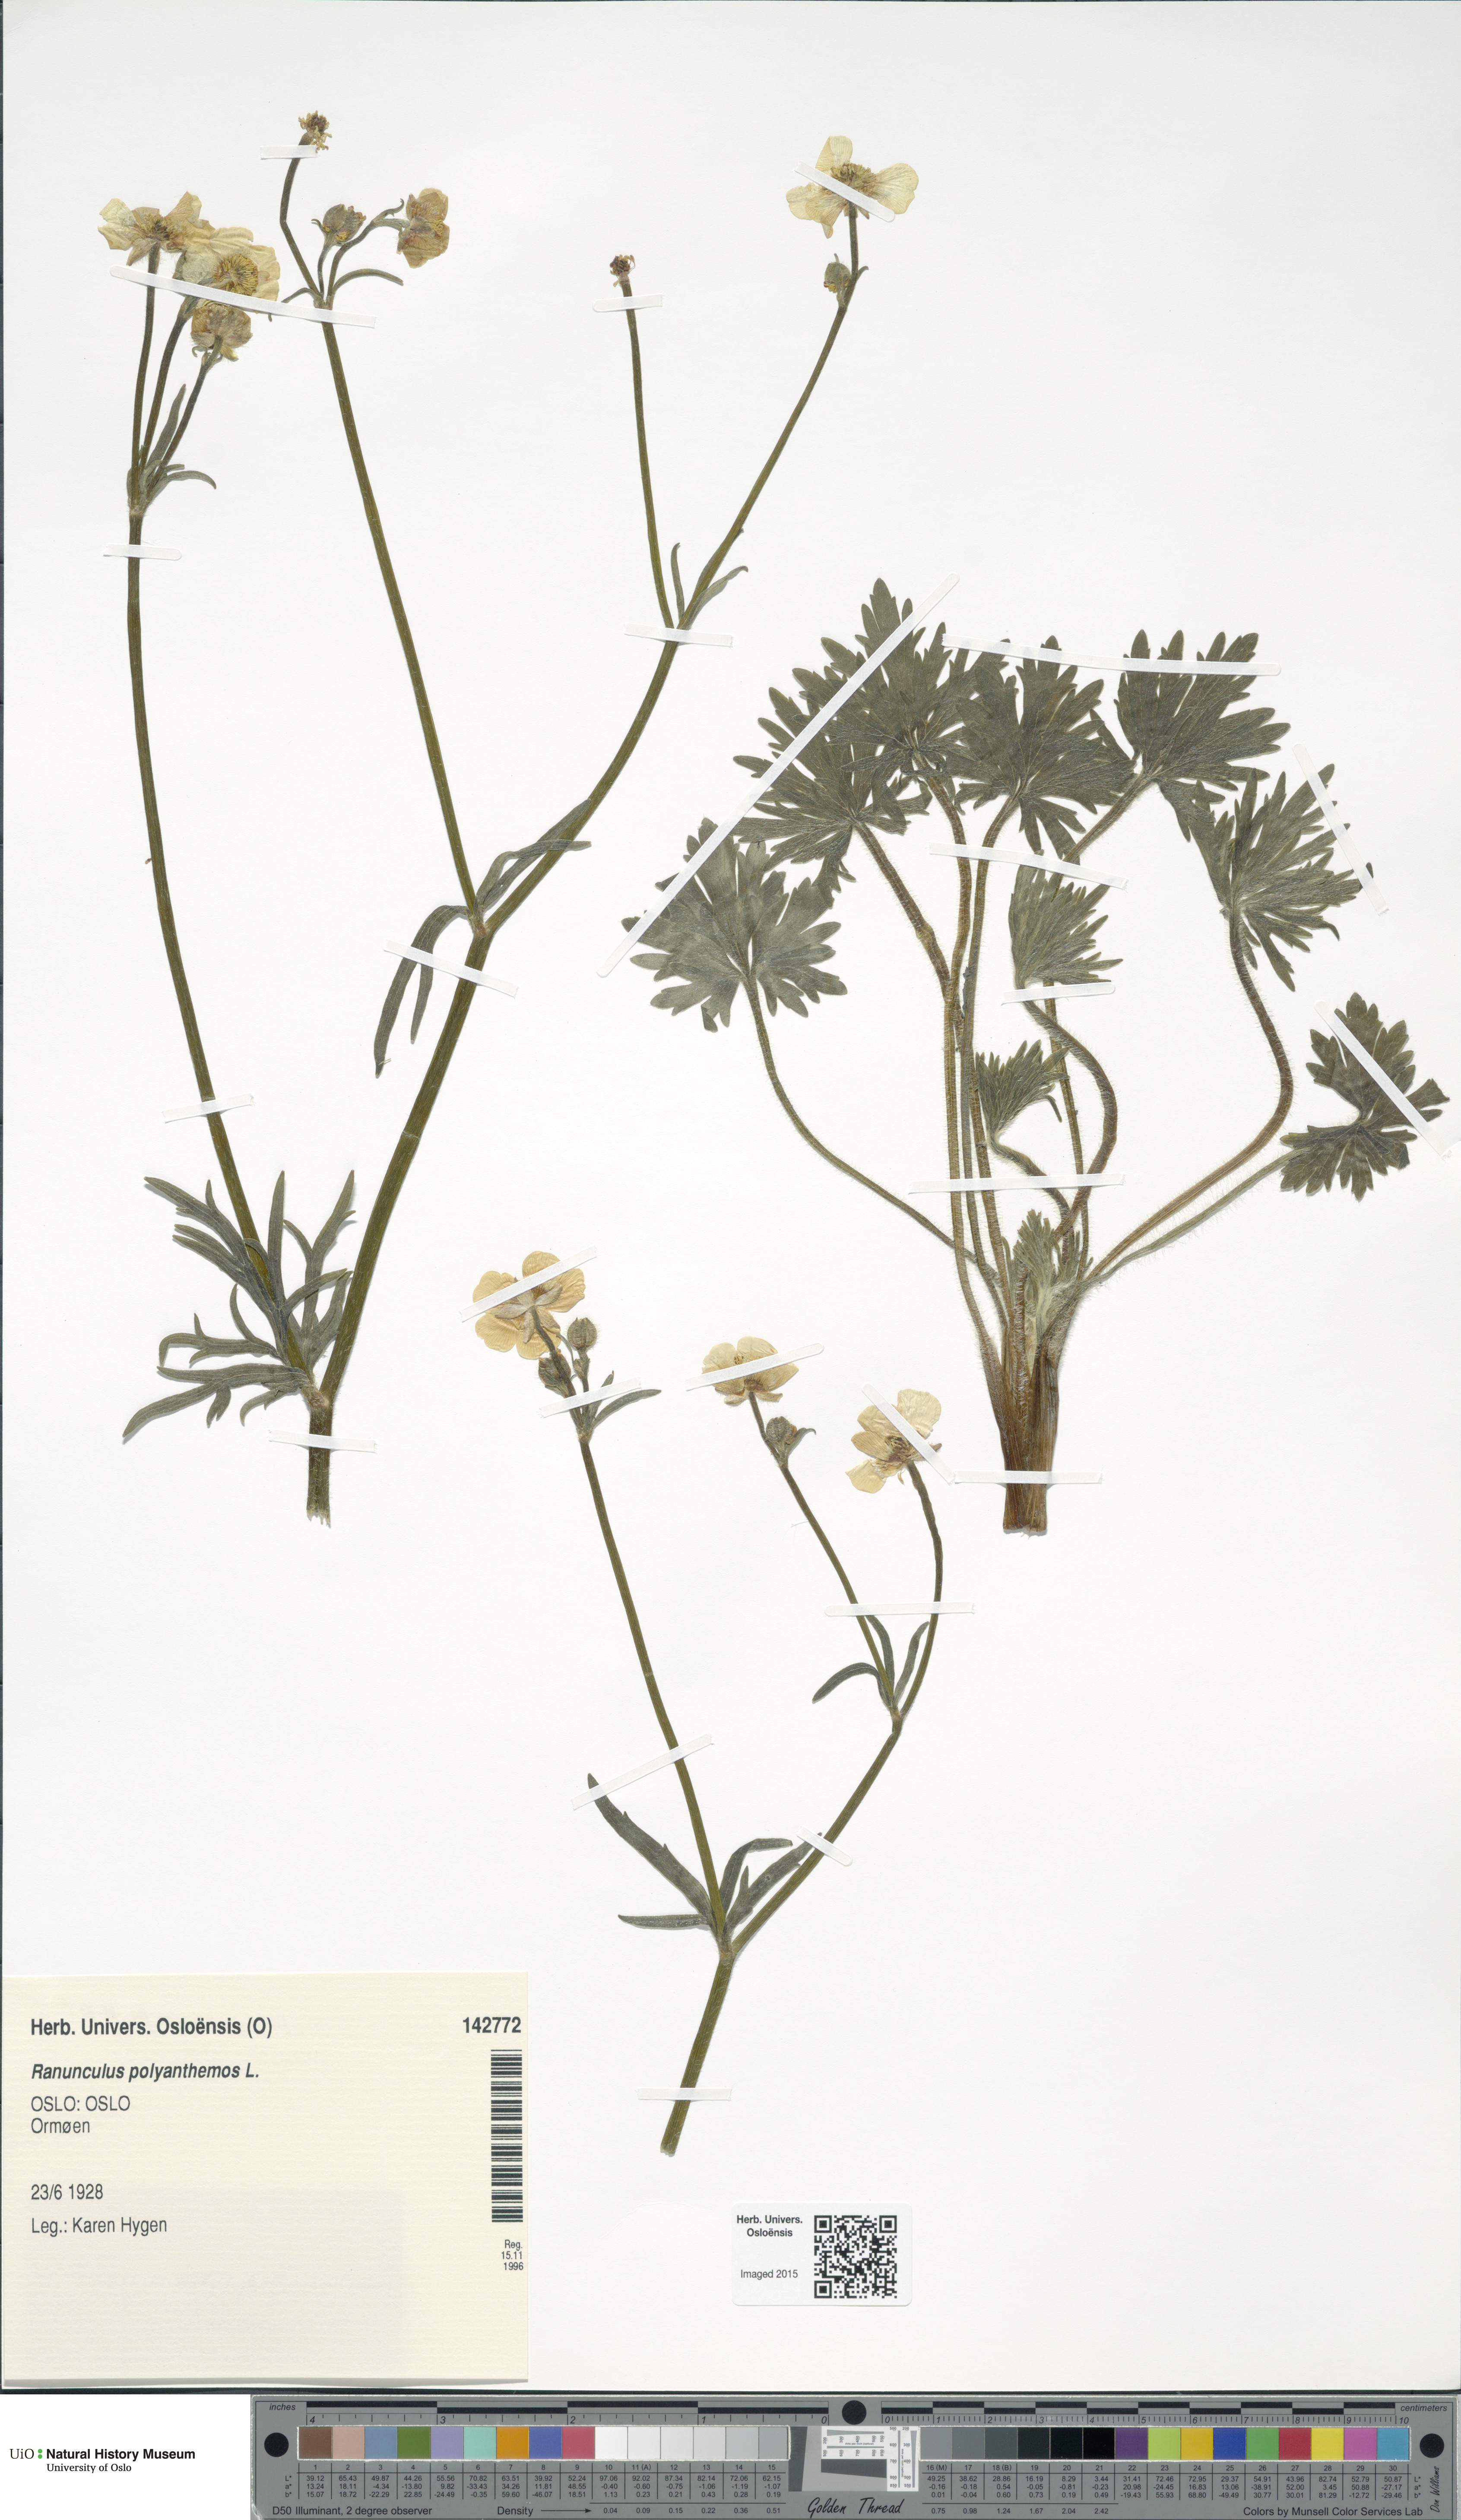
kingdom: Plantae
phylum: Tracheophyta
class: Magnoliopsida
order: Ranunculales
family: Ranunculaceae
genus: Ranunculus
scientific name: Ranunculus polyanthemos
